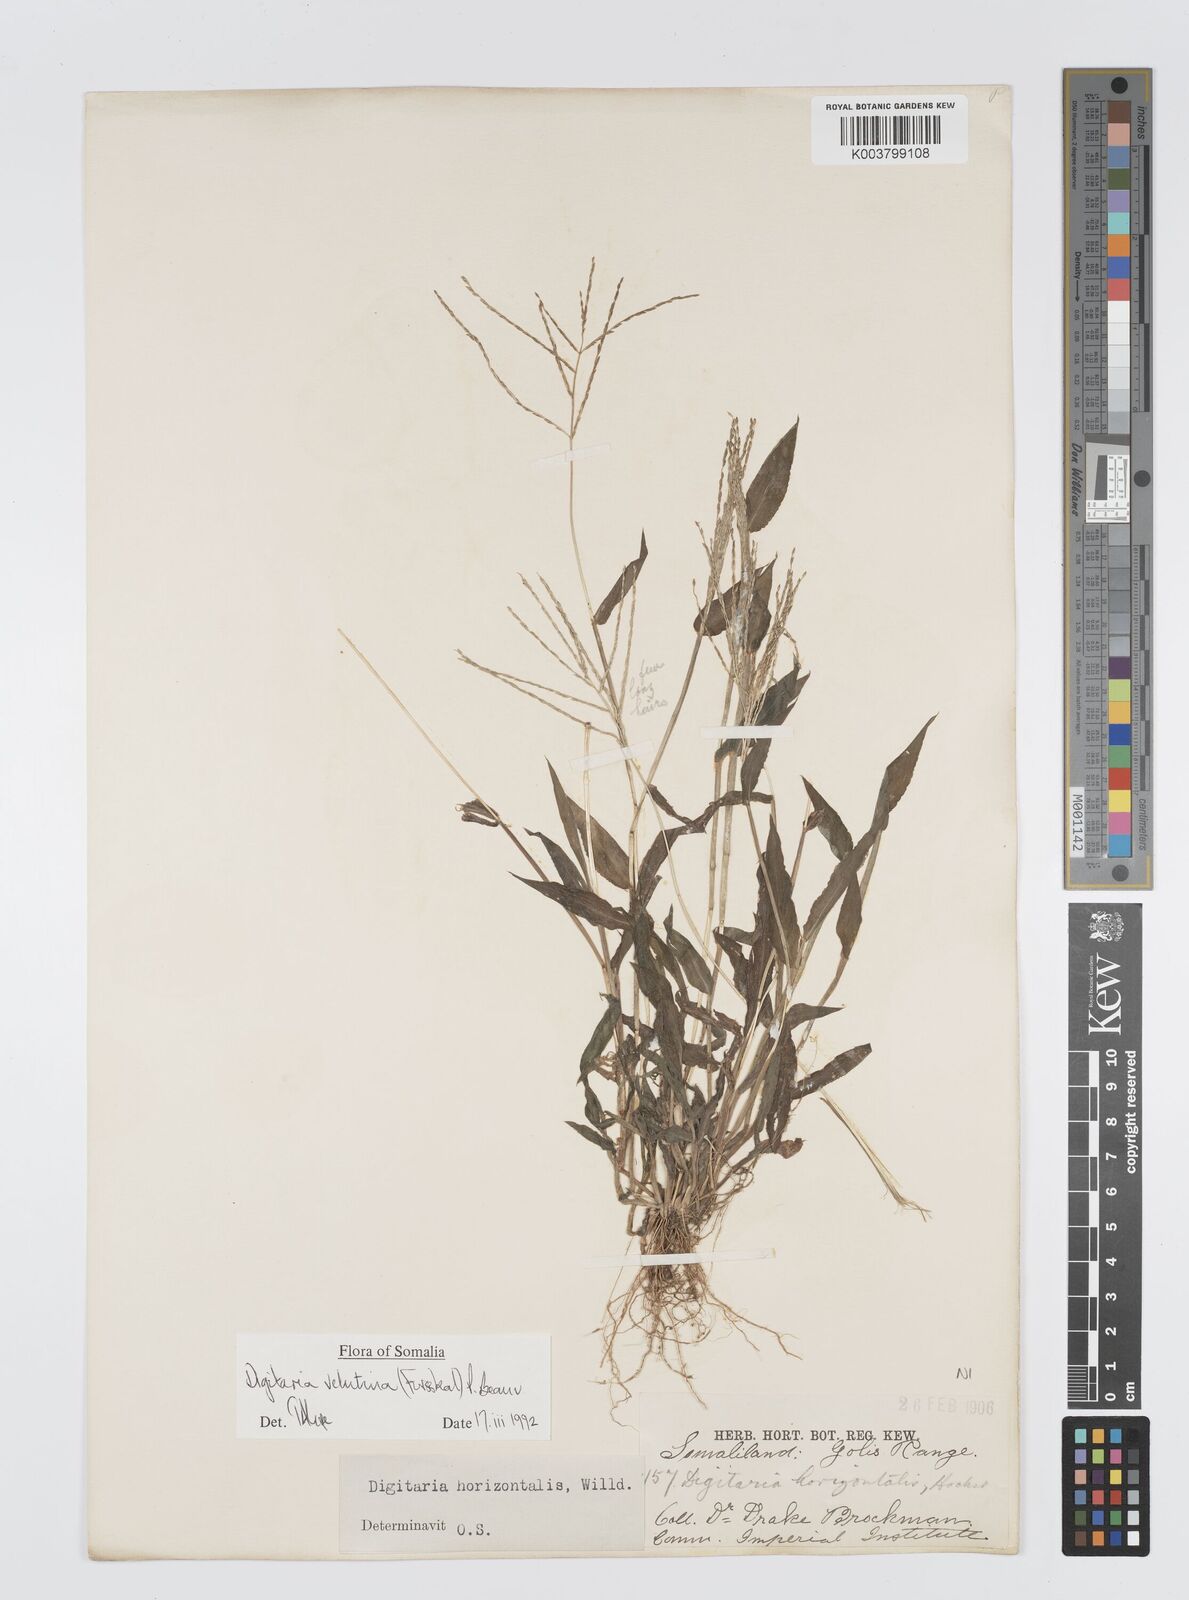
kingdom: Plantae
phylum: Tracheophyta
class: Liliopsida
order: Poales
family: Poaceae
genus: Digitaria
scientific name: Digitaria velutina
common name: Long-plume finger grass
